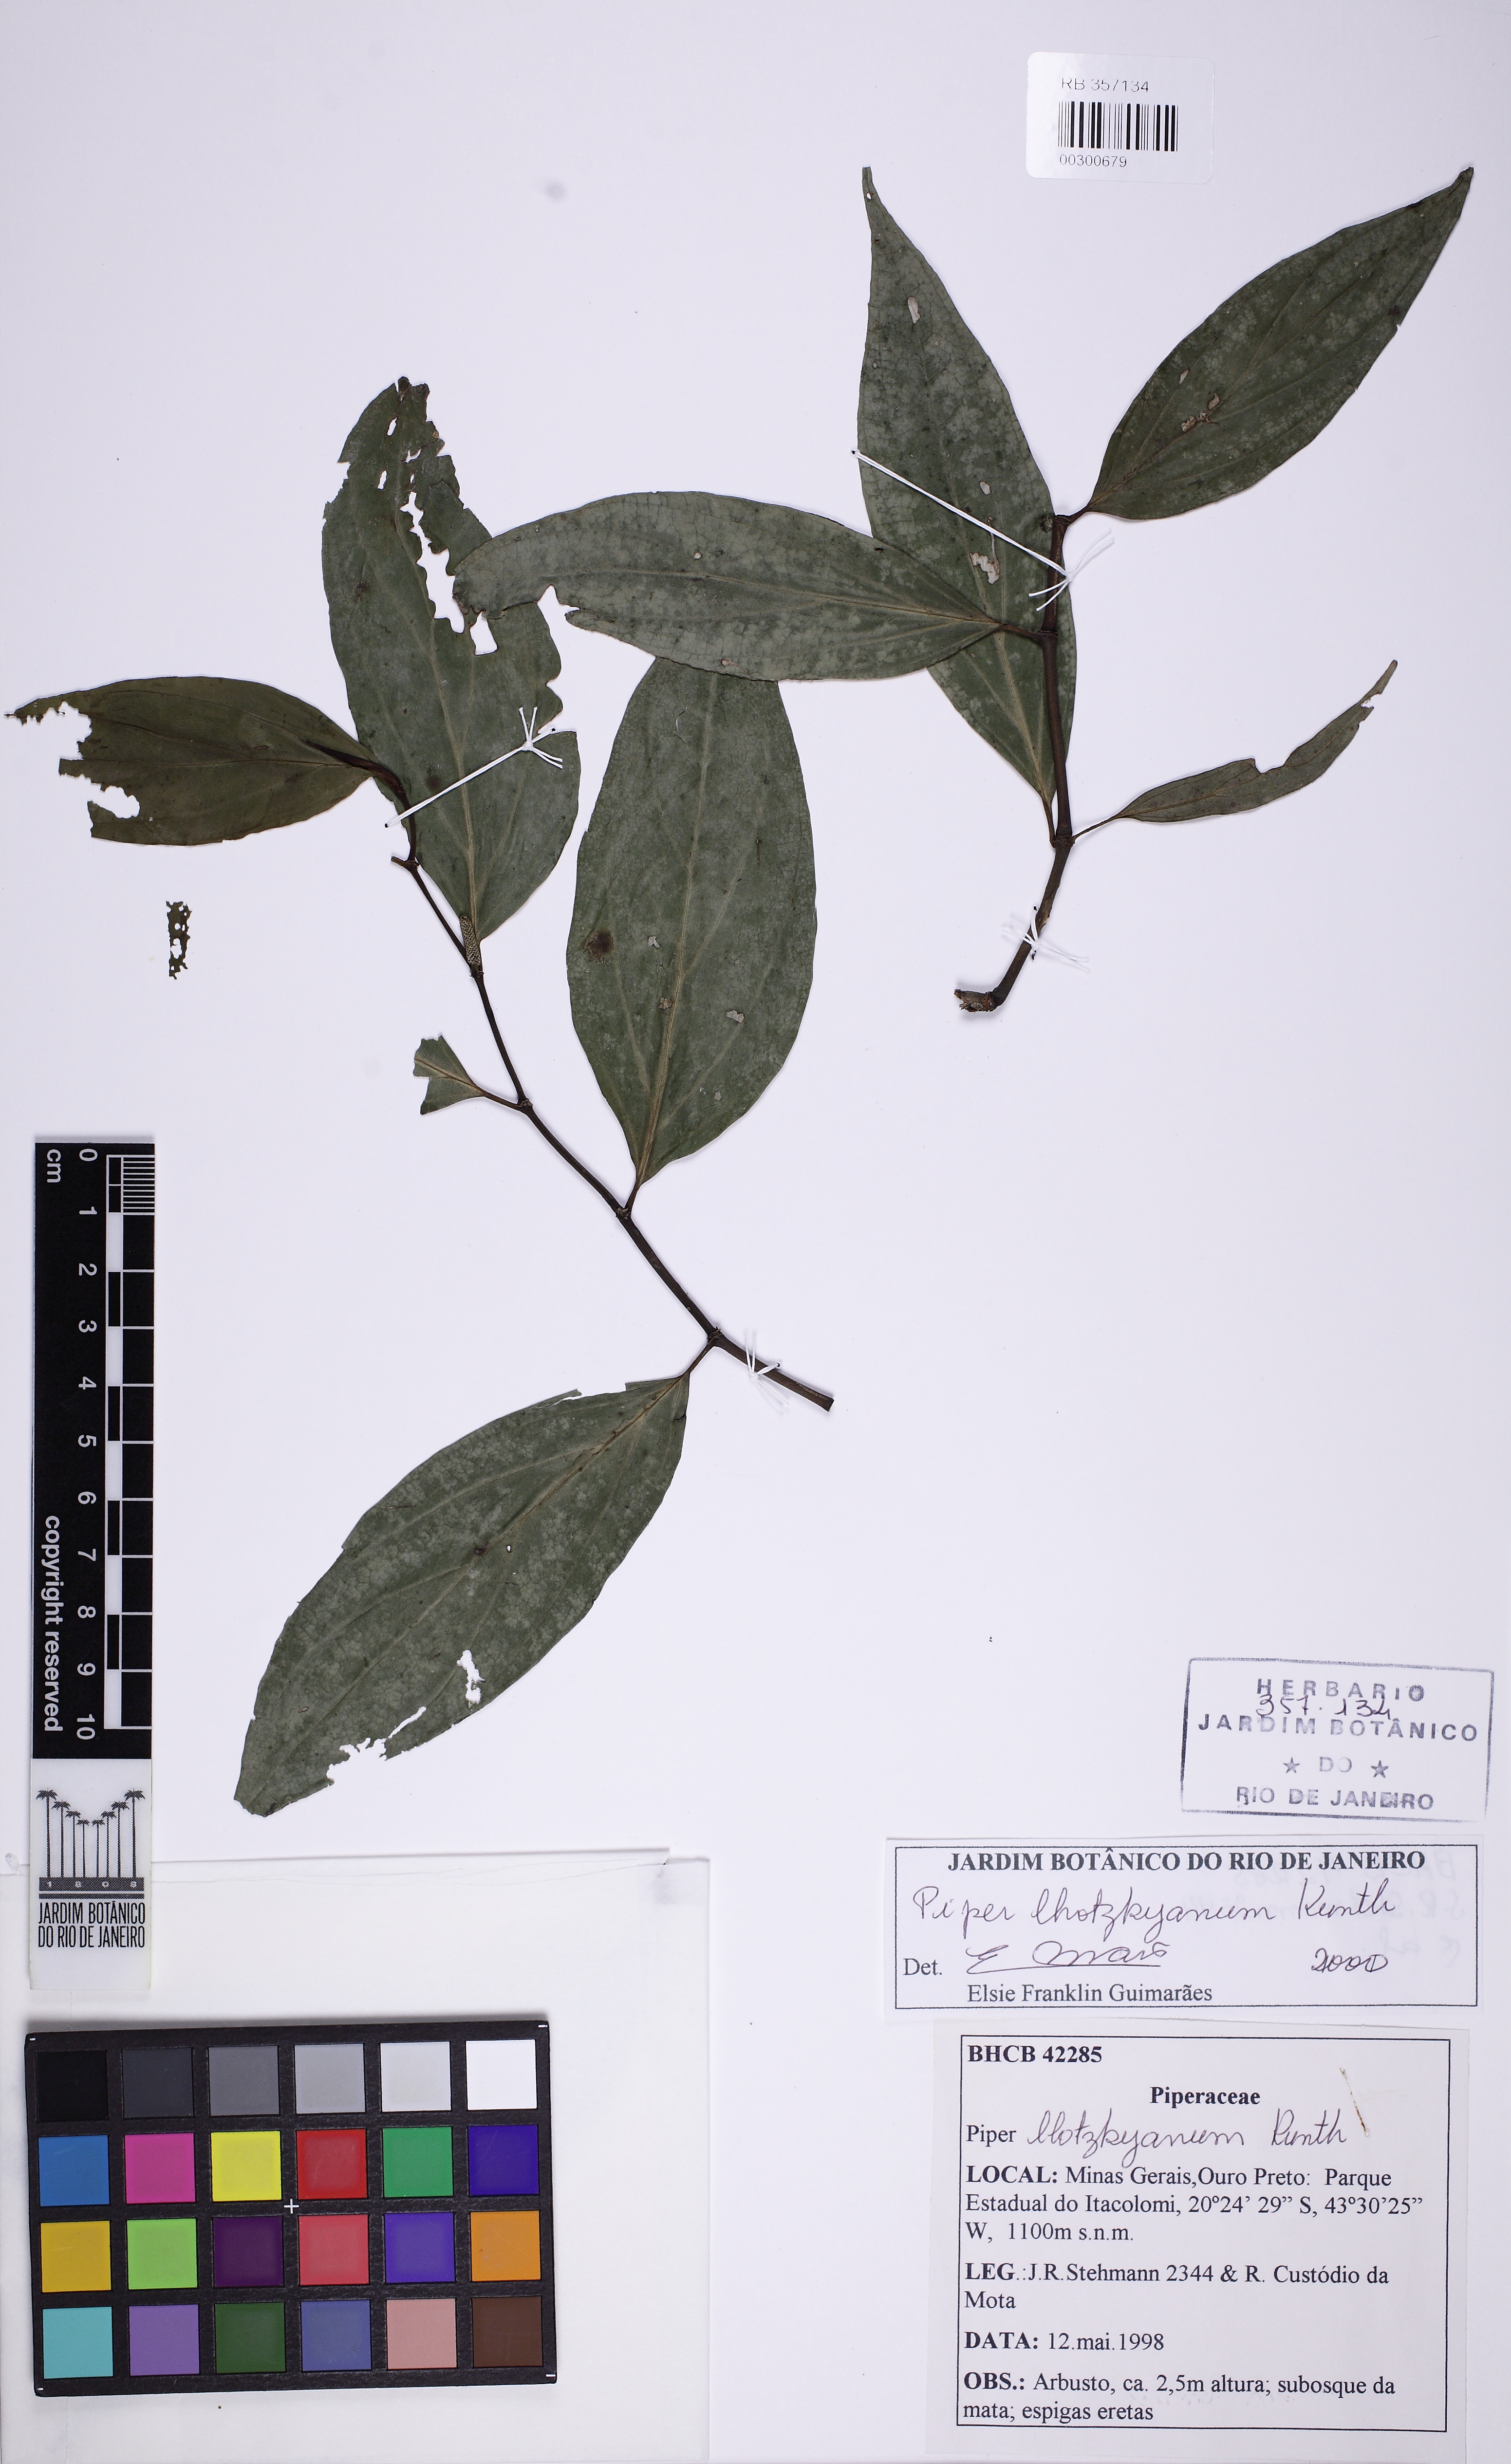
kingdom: Plantae
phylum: Tracheophyta
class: Magnoliopsida
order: Piperales
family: Piperaceae
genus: Piper
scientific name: Piper lhotzkyanum
